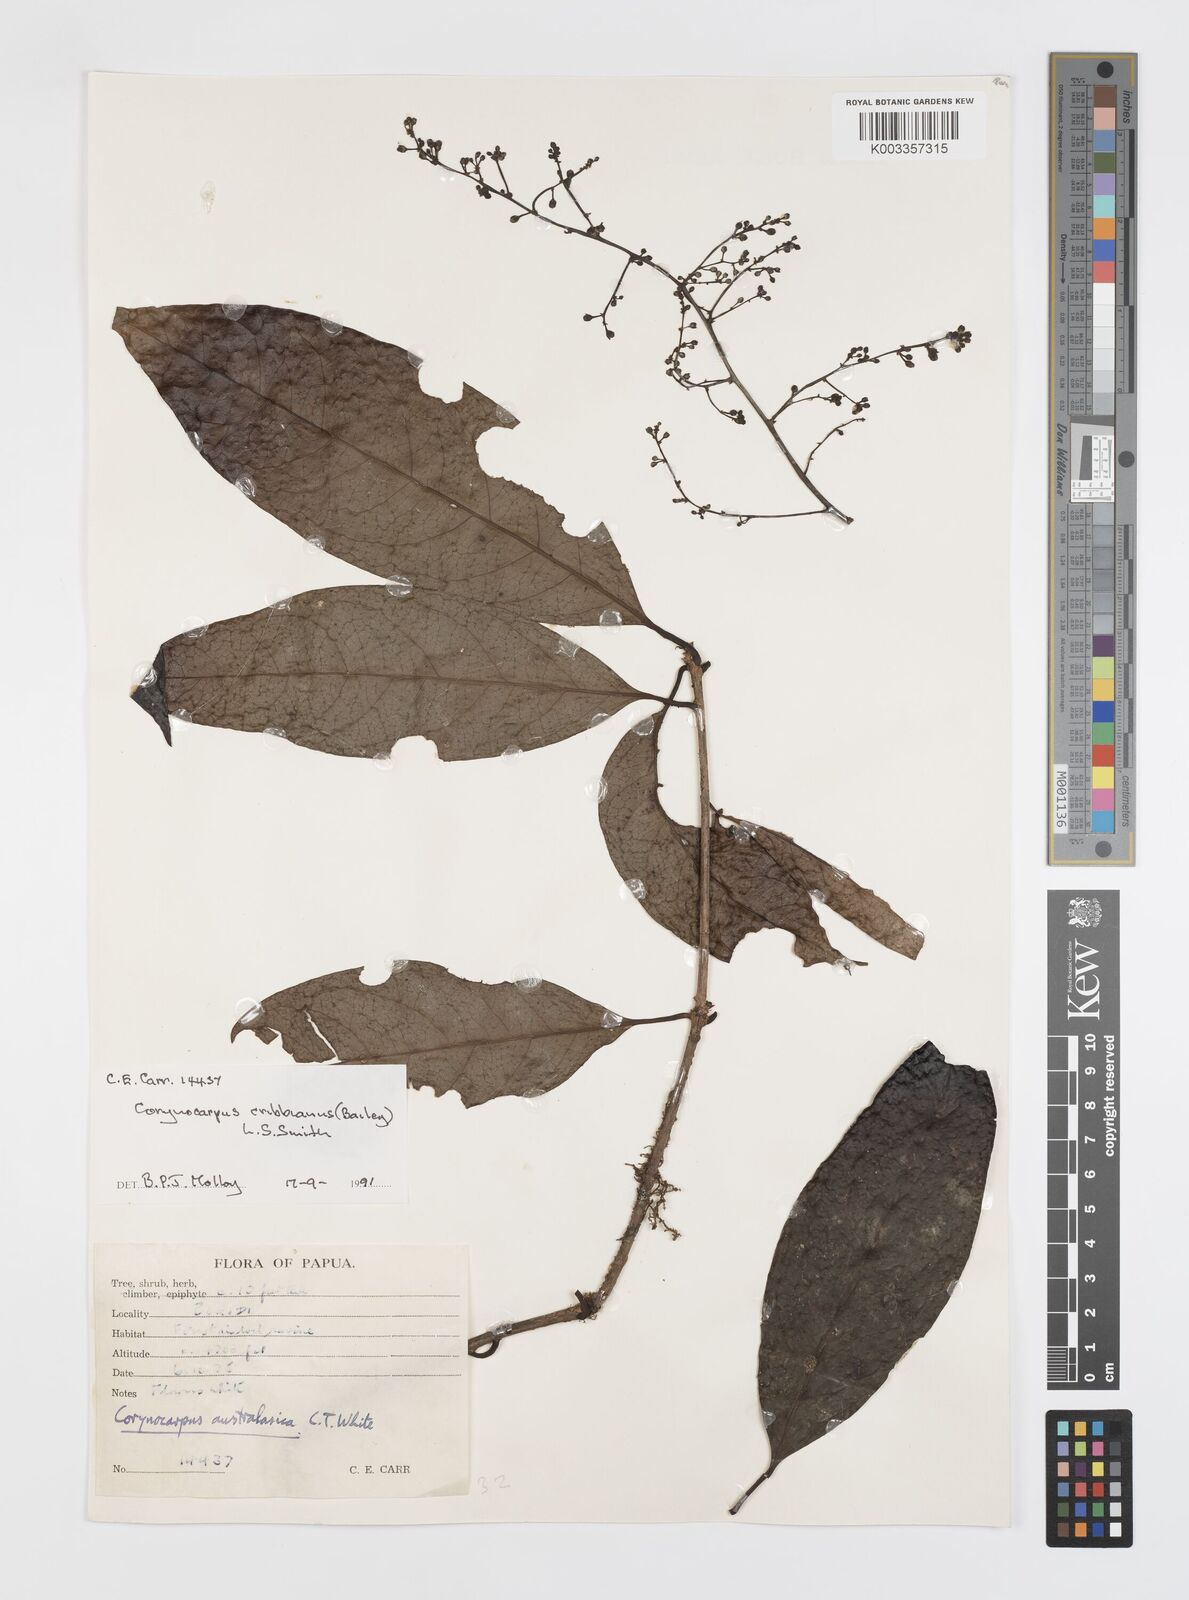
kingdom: Plantae
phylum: Tracheophyta
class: Magnoliopsida
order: Cucurbitales
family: Corynocarpaceae
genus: Corynocarpus
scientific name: Corynocarpus cribbianus
